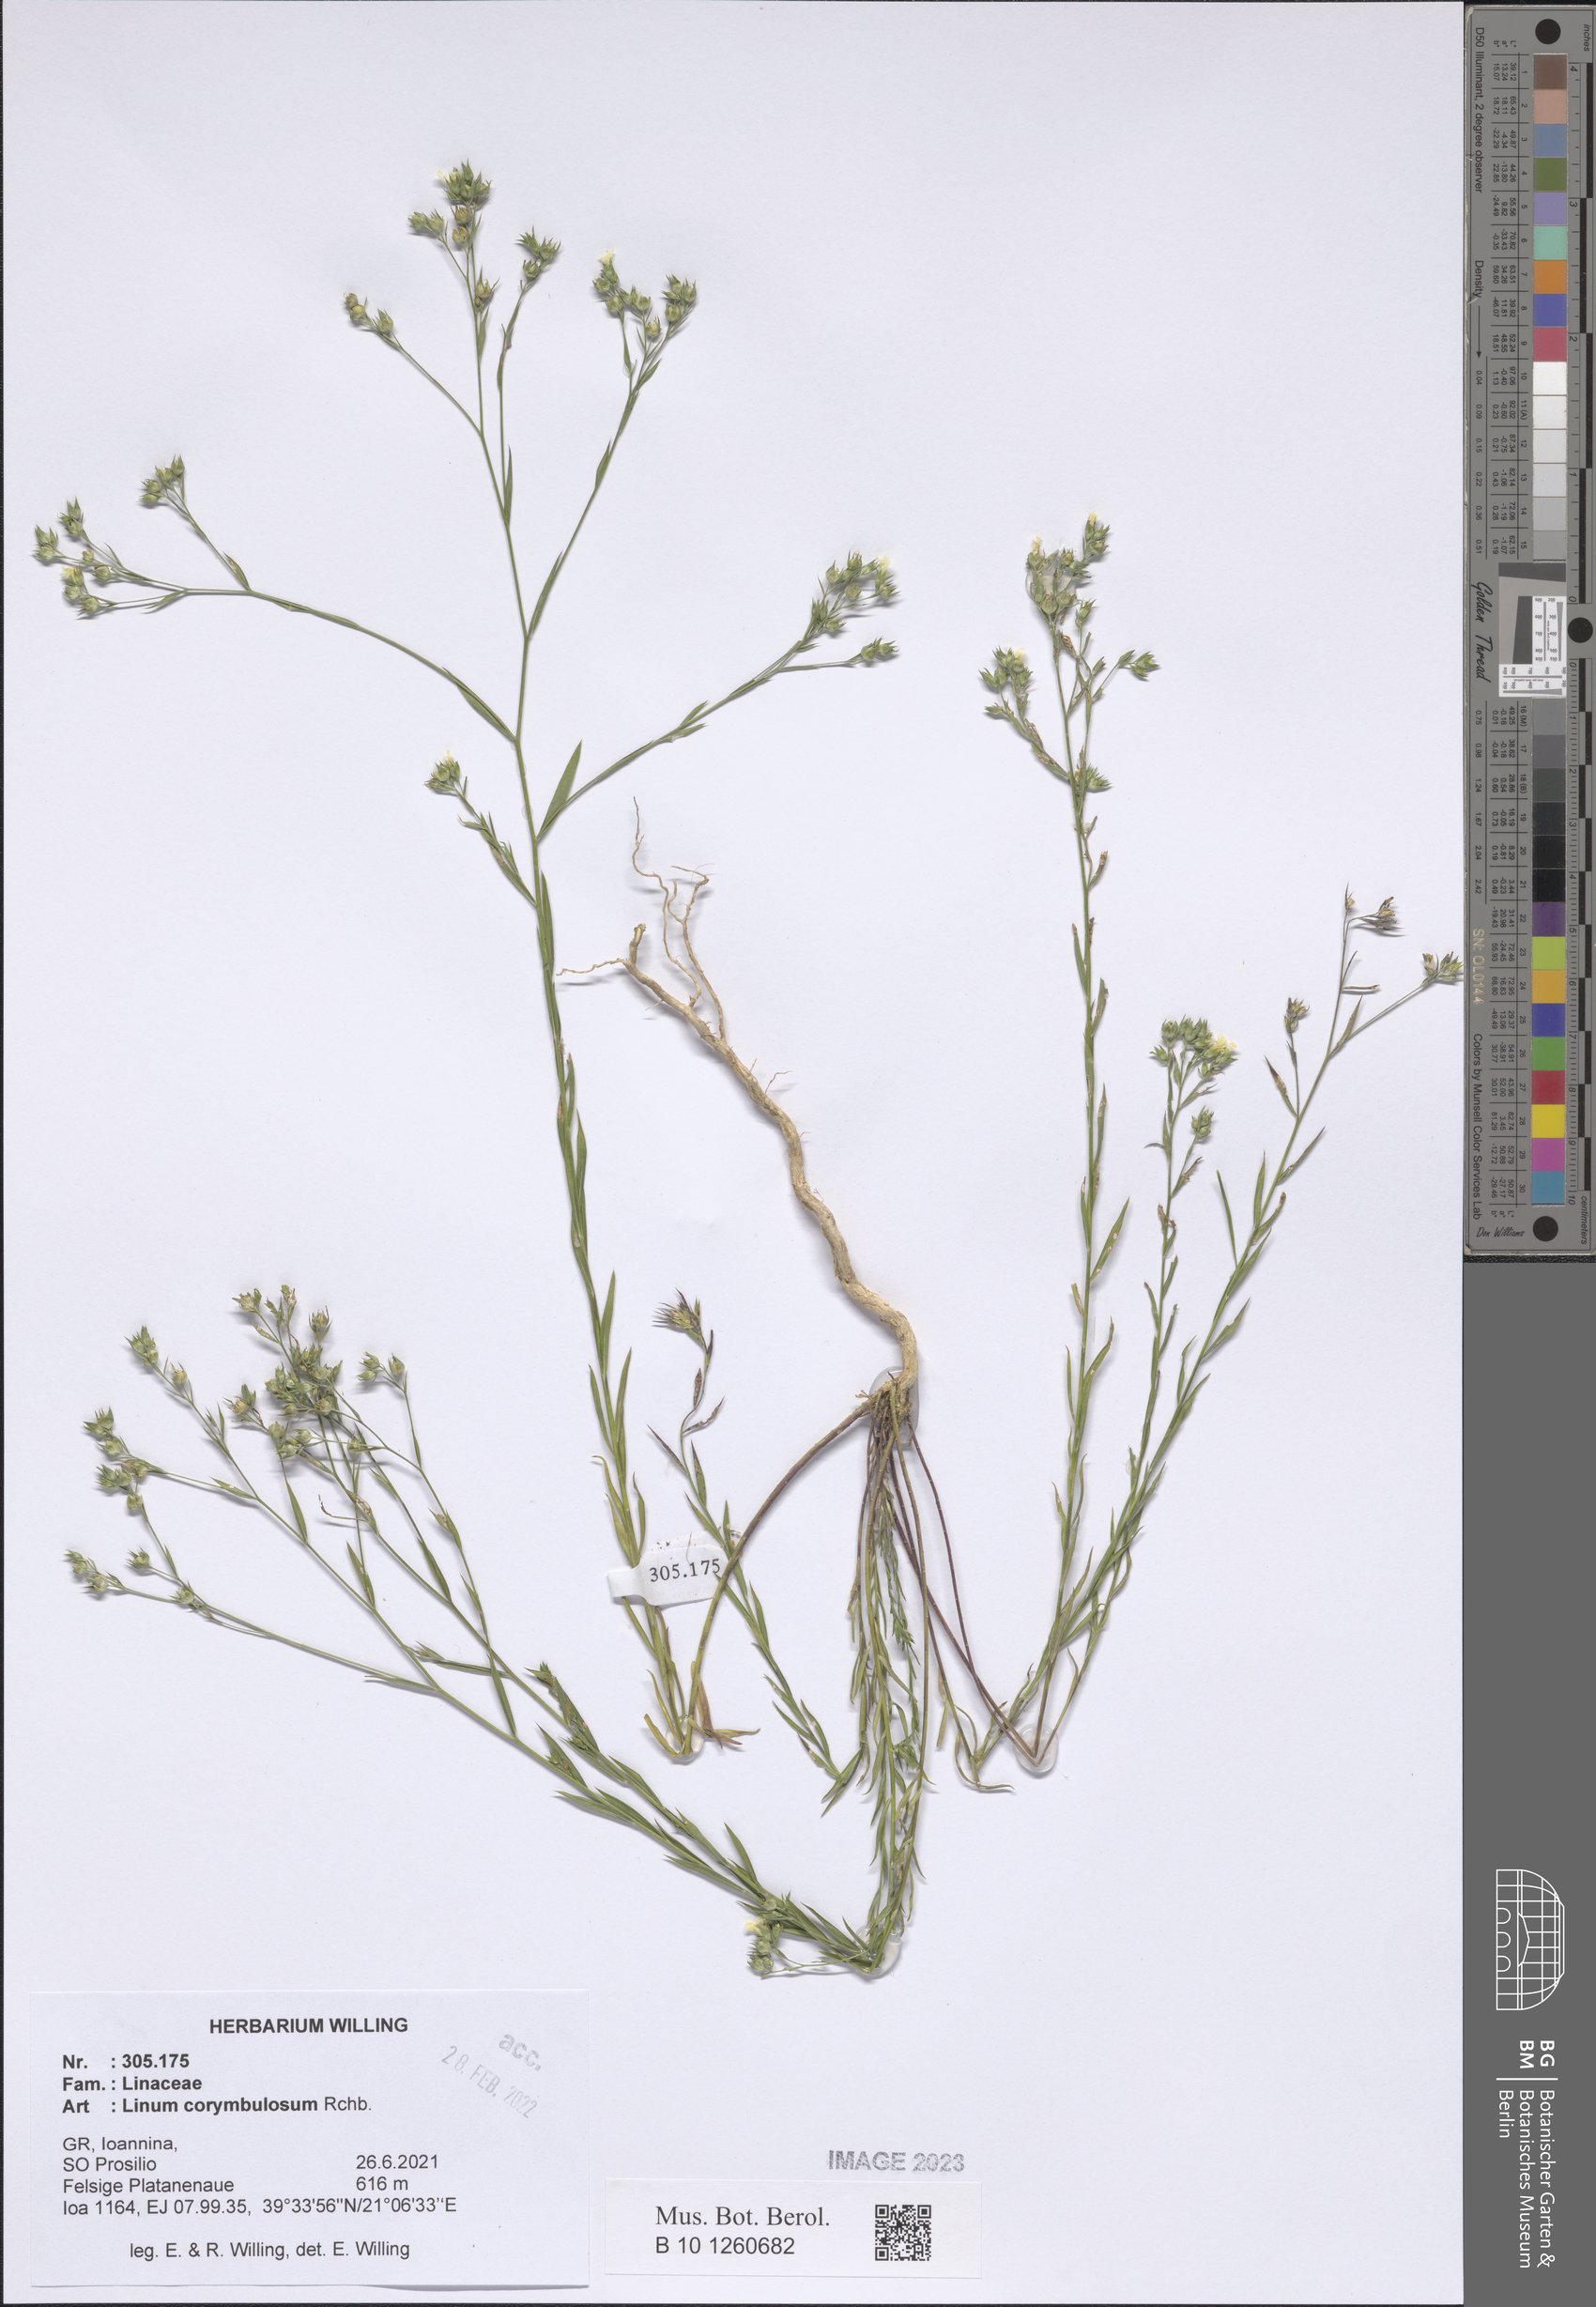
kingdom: Plantae
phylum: Tracheophyta
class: Magnoliopsida
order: Malpighiales
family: Linaceae
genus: Linum
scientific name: Linum corymbulosum
